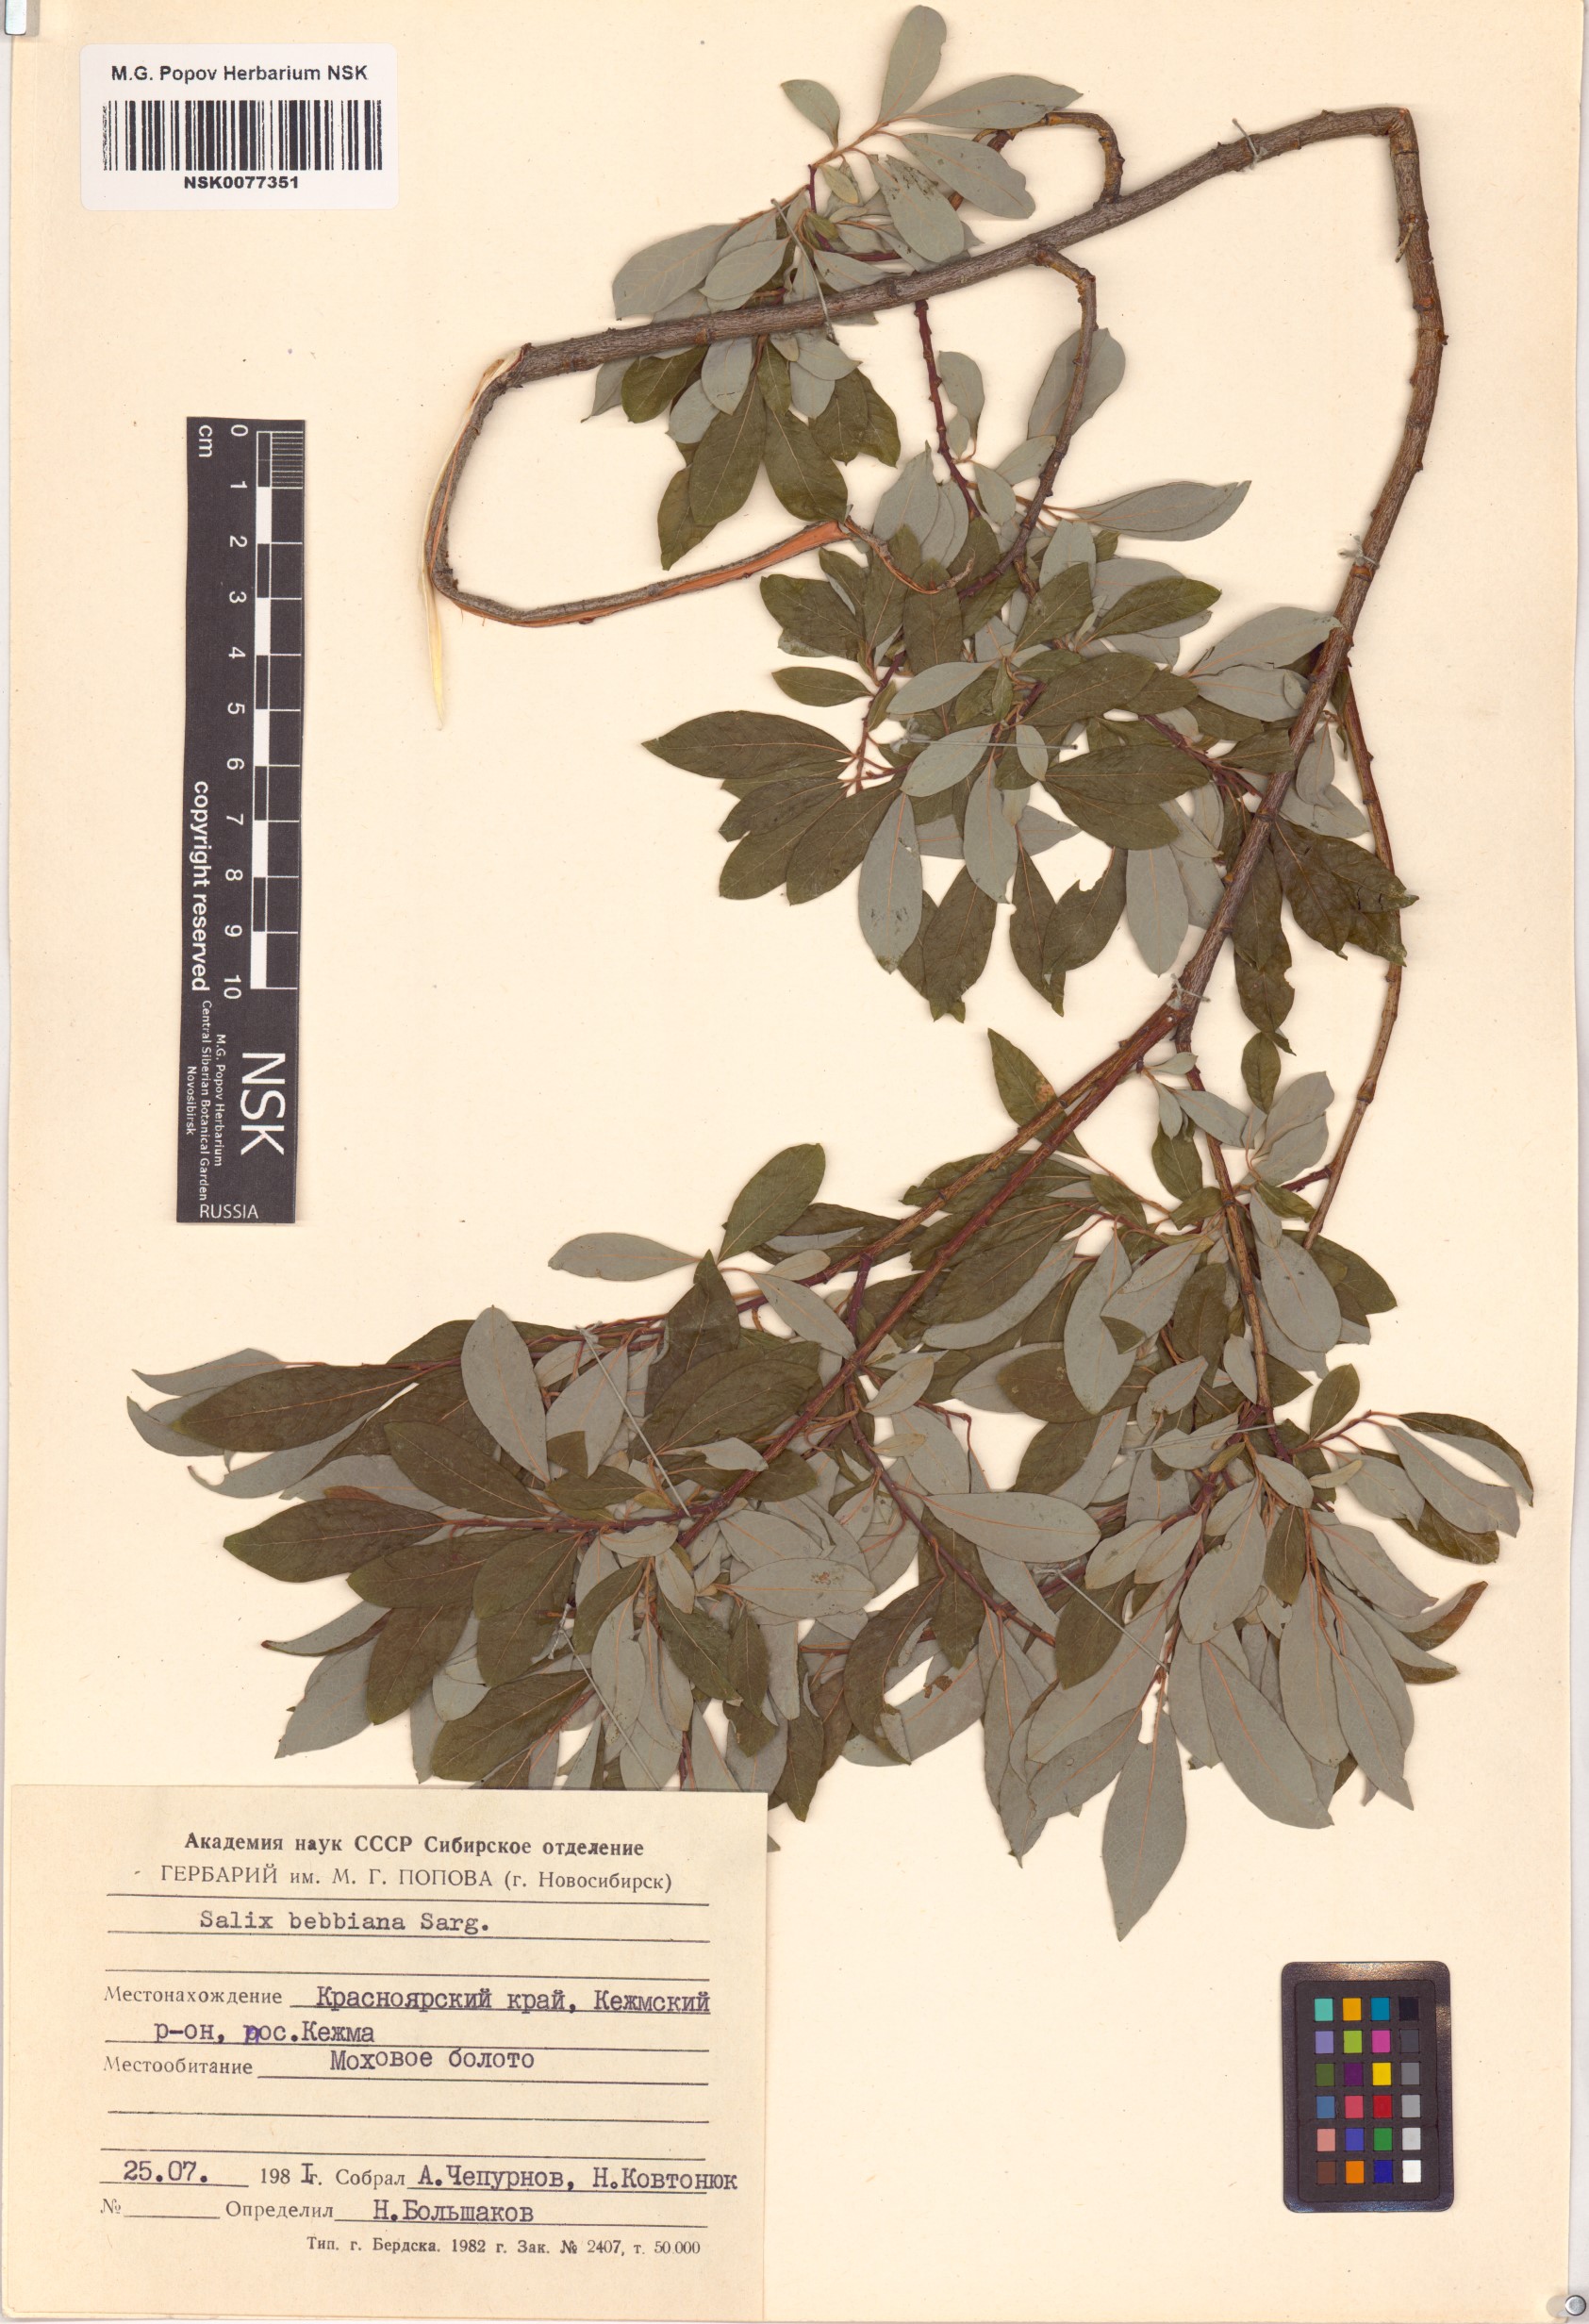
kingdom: Plantae
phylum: Tracheophyta
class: Magnoliopsida
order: Malpighiales
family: Salicaceae
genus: Salix
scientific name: Salix bebbiana
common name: Bebb's willow
